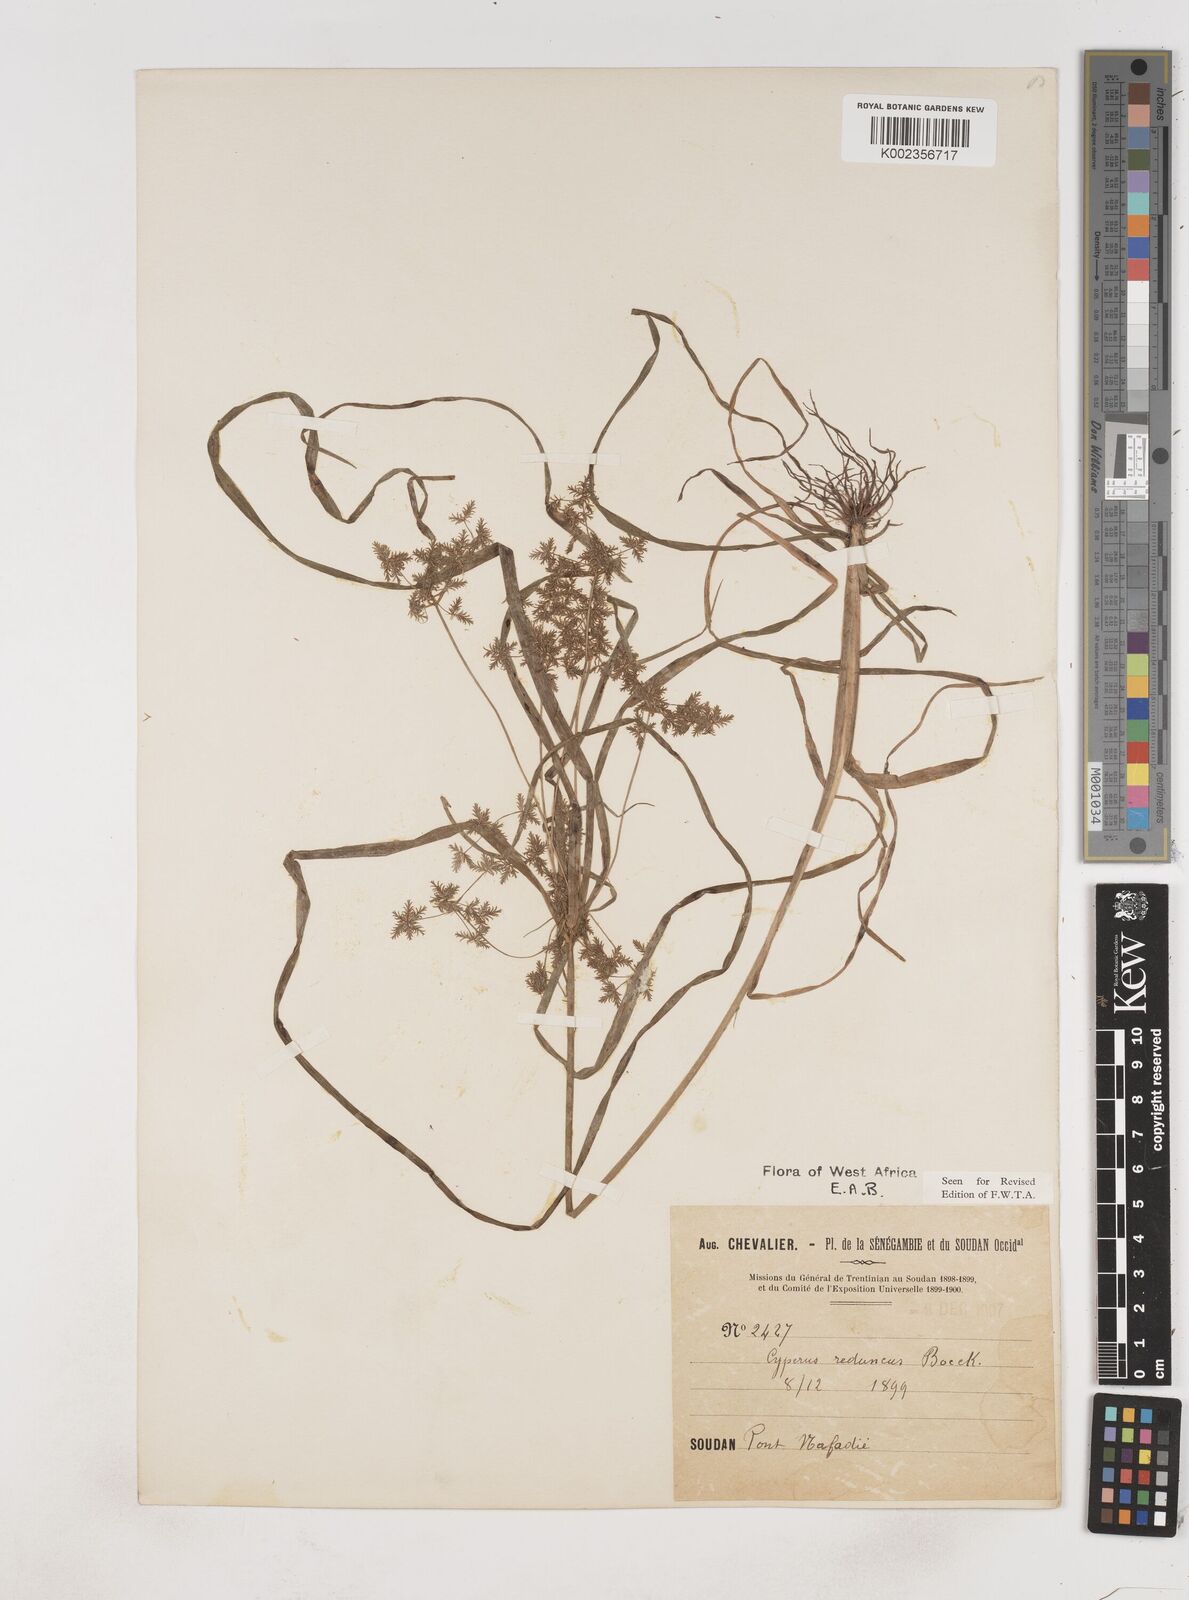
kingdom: Plantae
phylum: Tracheophyta
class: Liliopsida
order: Poales
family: Cyperaceae
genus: Cyperus
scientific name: Cyperus reduncus
